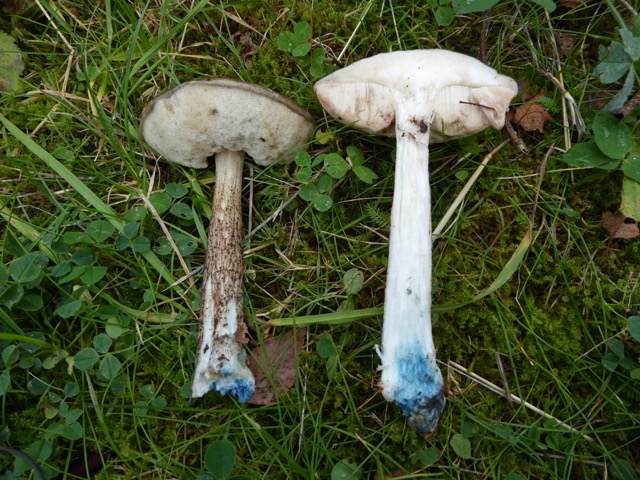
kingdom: Fungi
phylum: Basidiomycota
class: Agaricomycetes
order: Boletales
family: Boletaceae
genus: Leccinum
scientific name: Leccinum variicolor
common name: flammet skælrørhat
